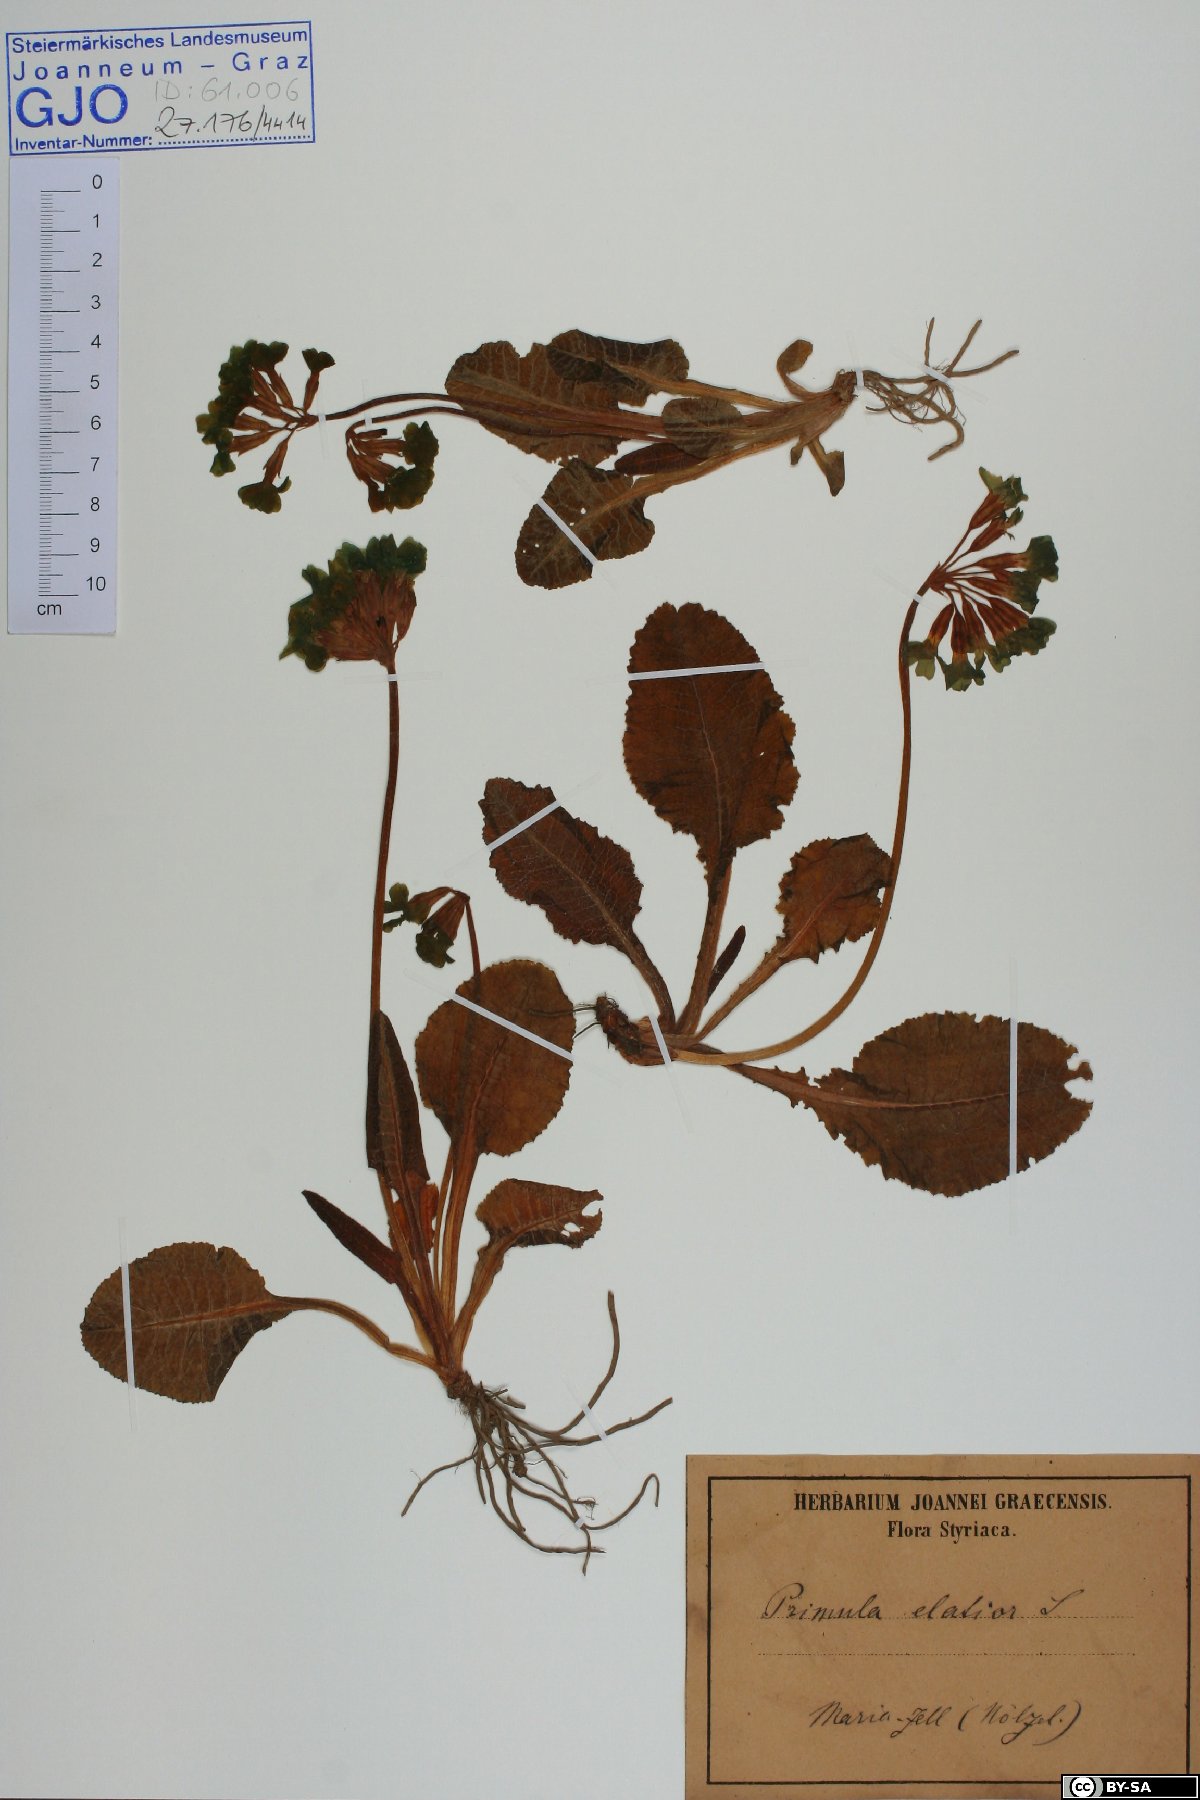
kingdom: Plantae
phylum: Tracheophyta
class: Magnoliopsida
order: Ericales
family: Primulaceae
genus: Primula
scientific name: Primula elatior
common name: Oxlip
